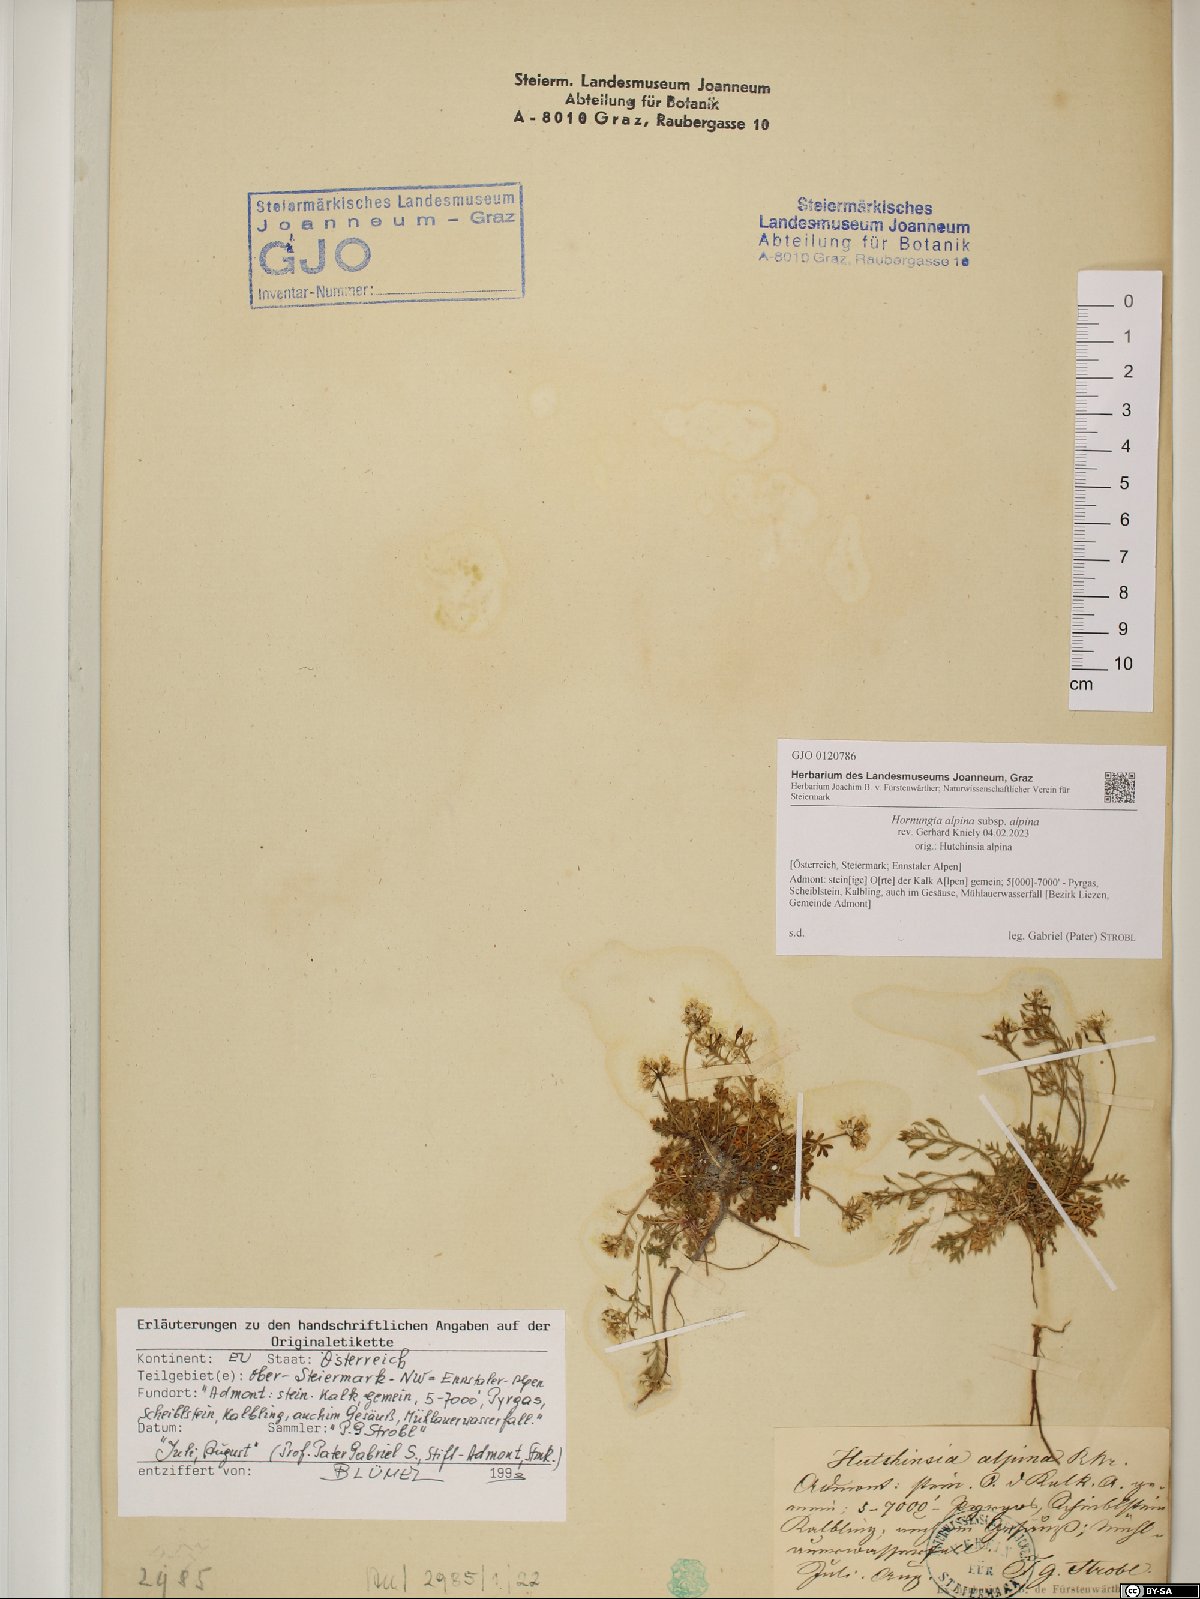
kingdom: Plantae
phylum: Tracheophyta
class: Magnoliopsida
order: Brassicales
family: Brassicaceae
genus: Hornungia
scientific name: Hornungia alpina
